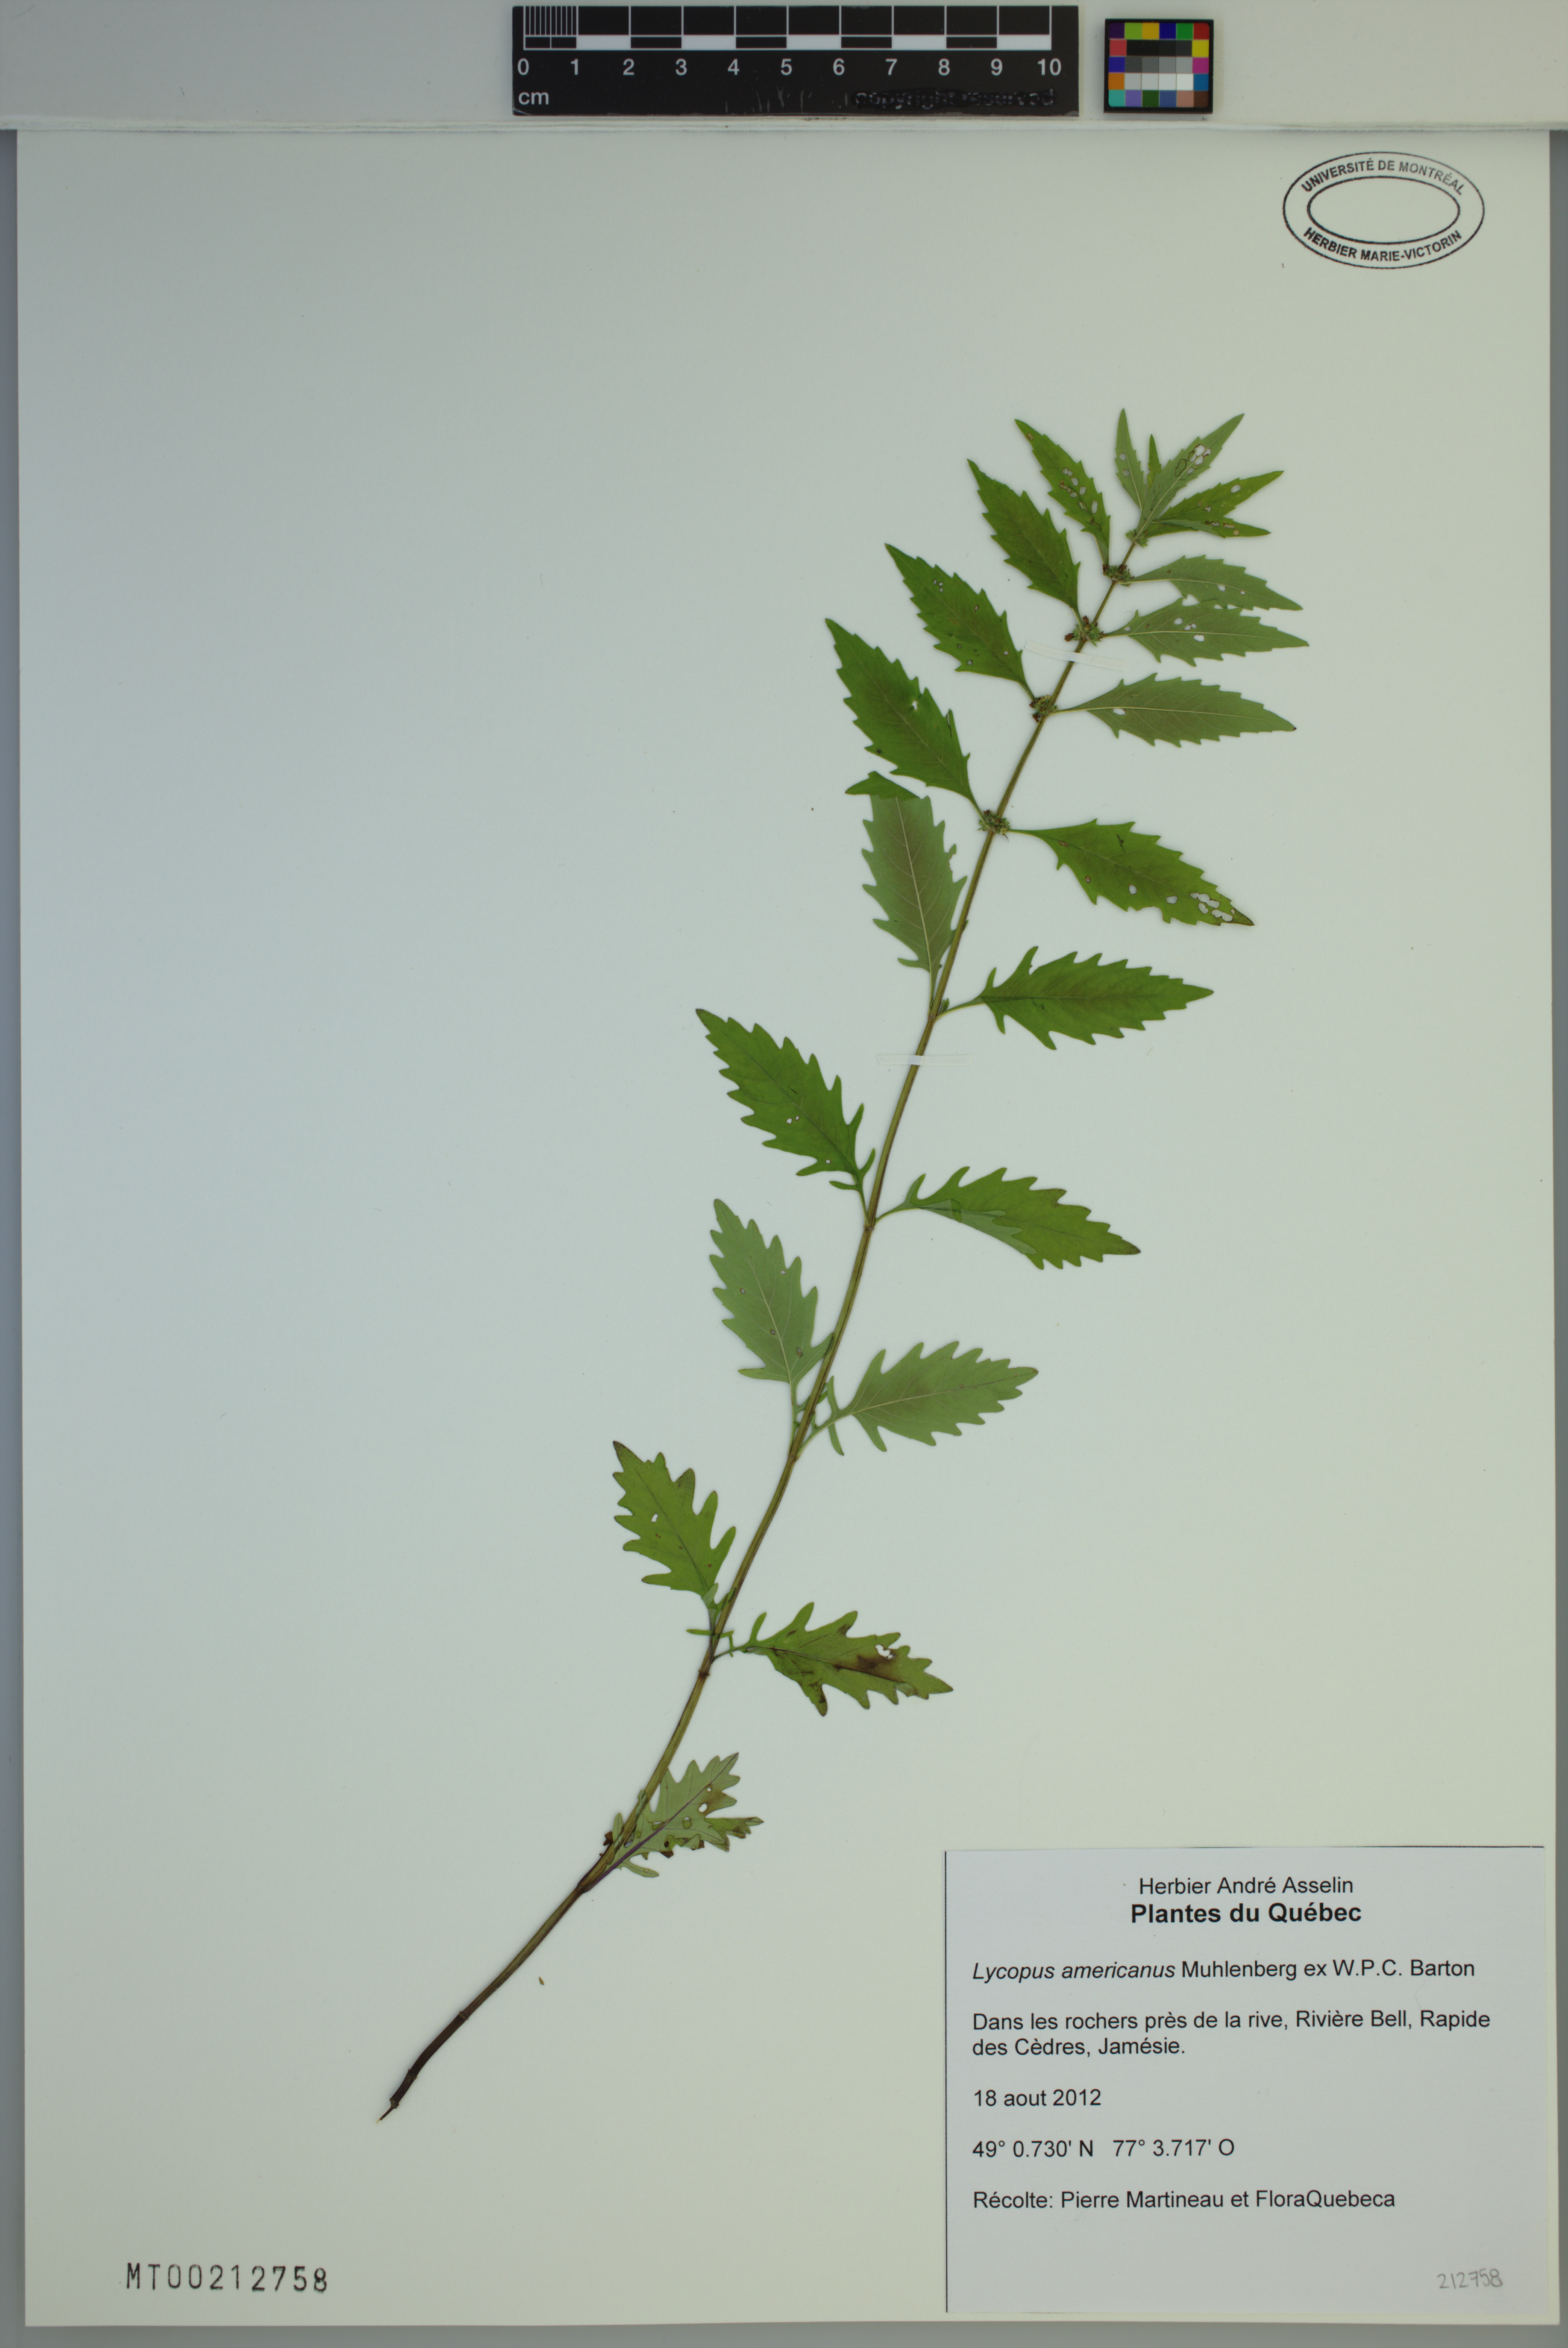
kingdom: Plantae
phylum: Tracheophyta
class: Magnoliopsida
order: Lamiales
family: Lamiaceae
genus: Lycopus
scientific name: Lycopus americanus
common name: American bugleweed
